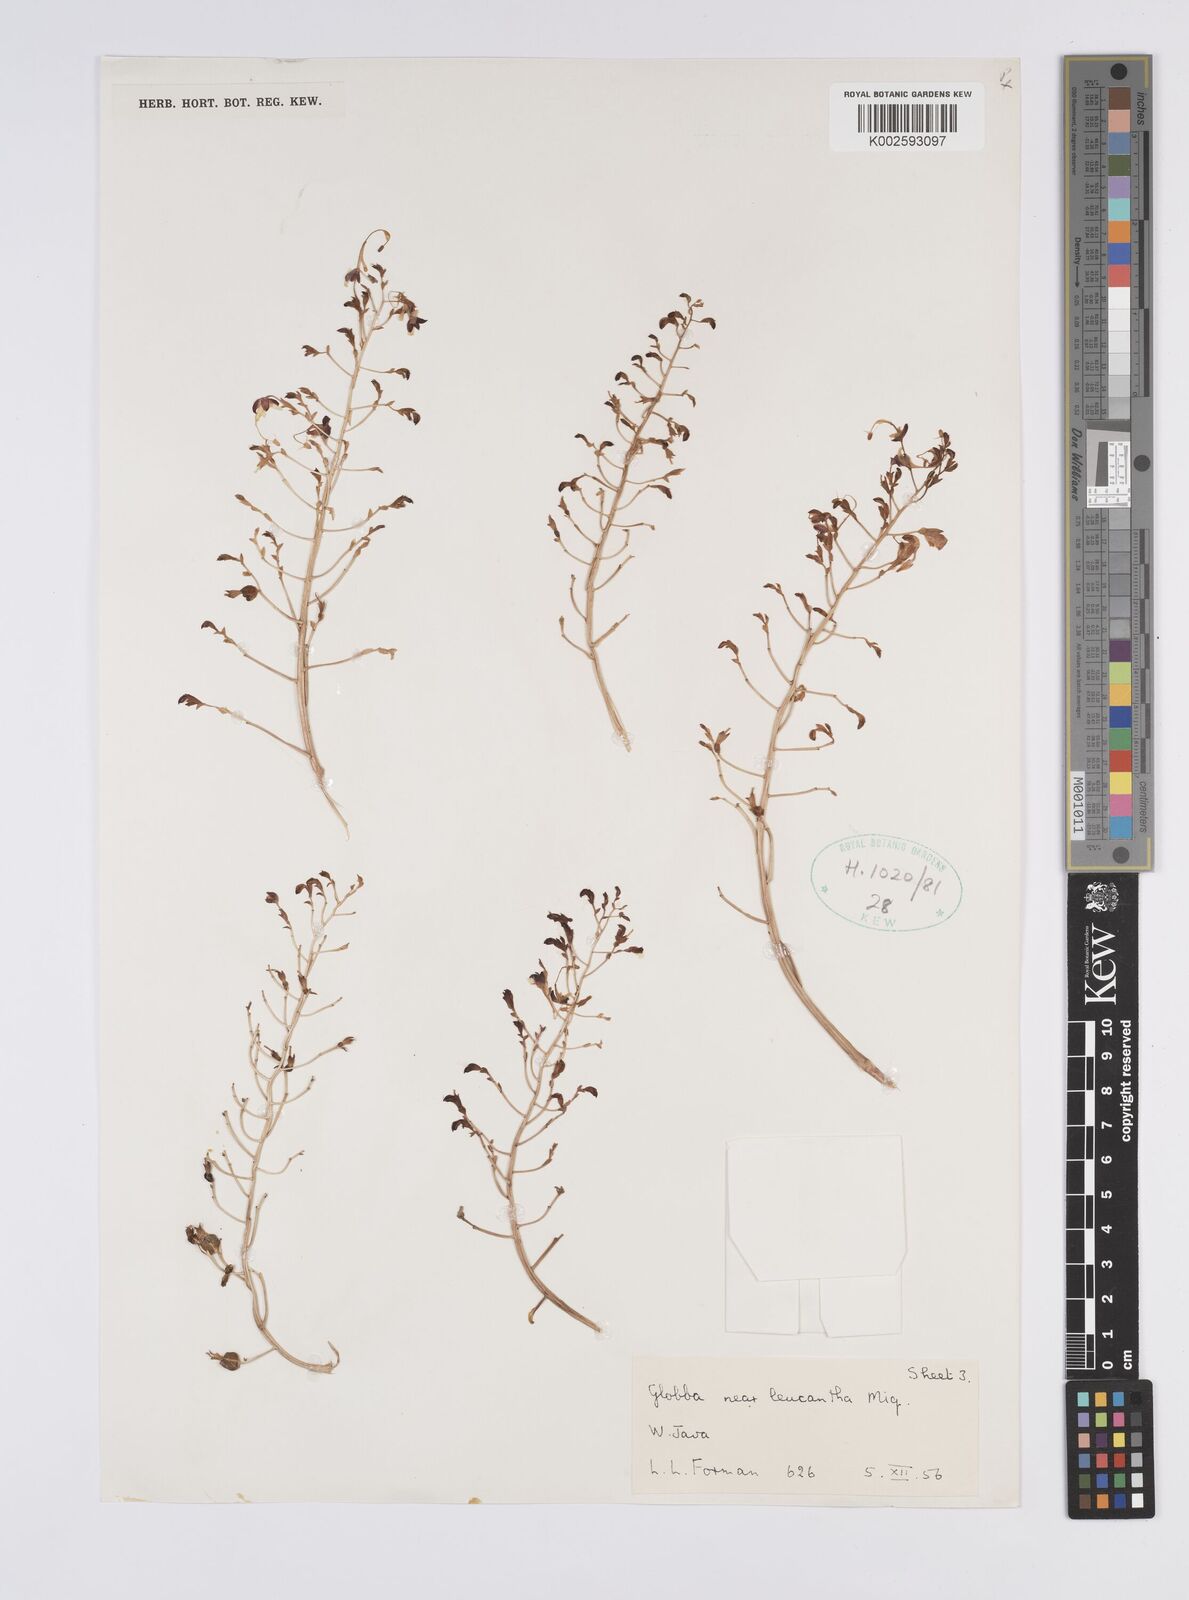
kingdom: Plantae
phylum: Tracheophyta
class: Liliopsida
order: Zingiberales
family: Zingiberaceae
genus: Globba
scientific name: Globba leucantha
